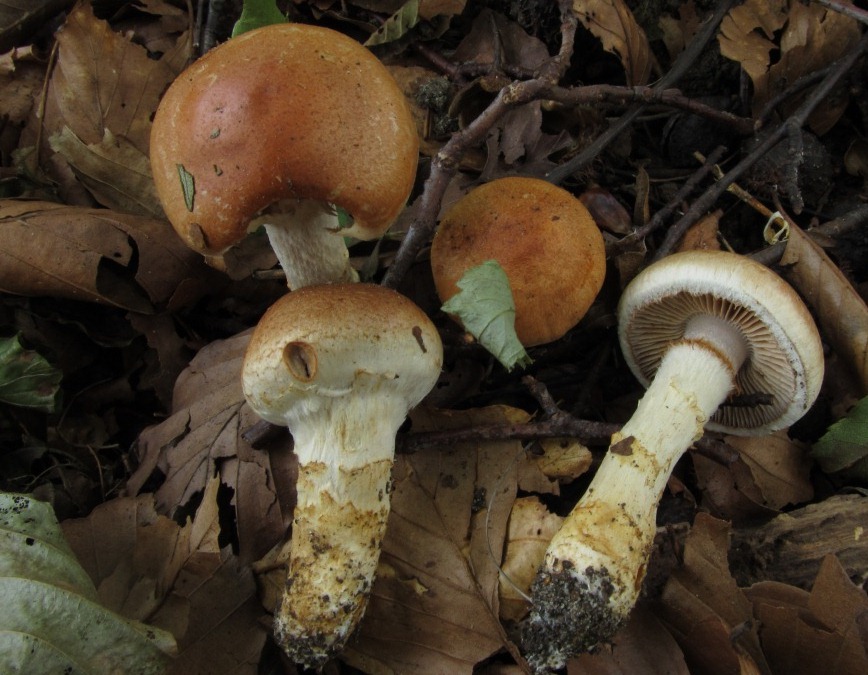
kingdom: Fungi
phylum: Basidiomycota
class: Agaricomycetes
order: Agaricales
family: Cortinariaceae
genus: Phlegmacium
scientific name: Phlegmacium vulpinum
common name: ringbæltet slørhat
